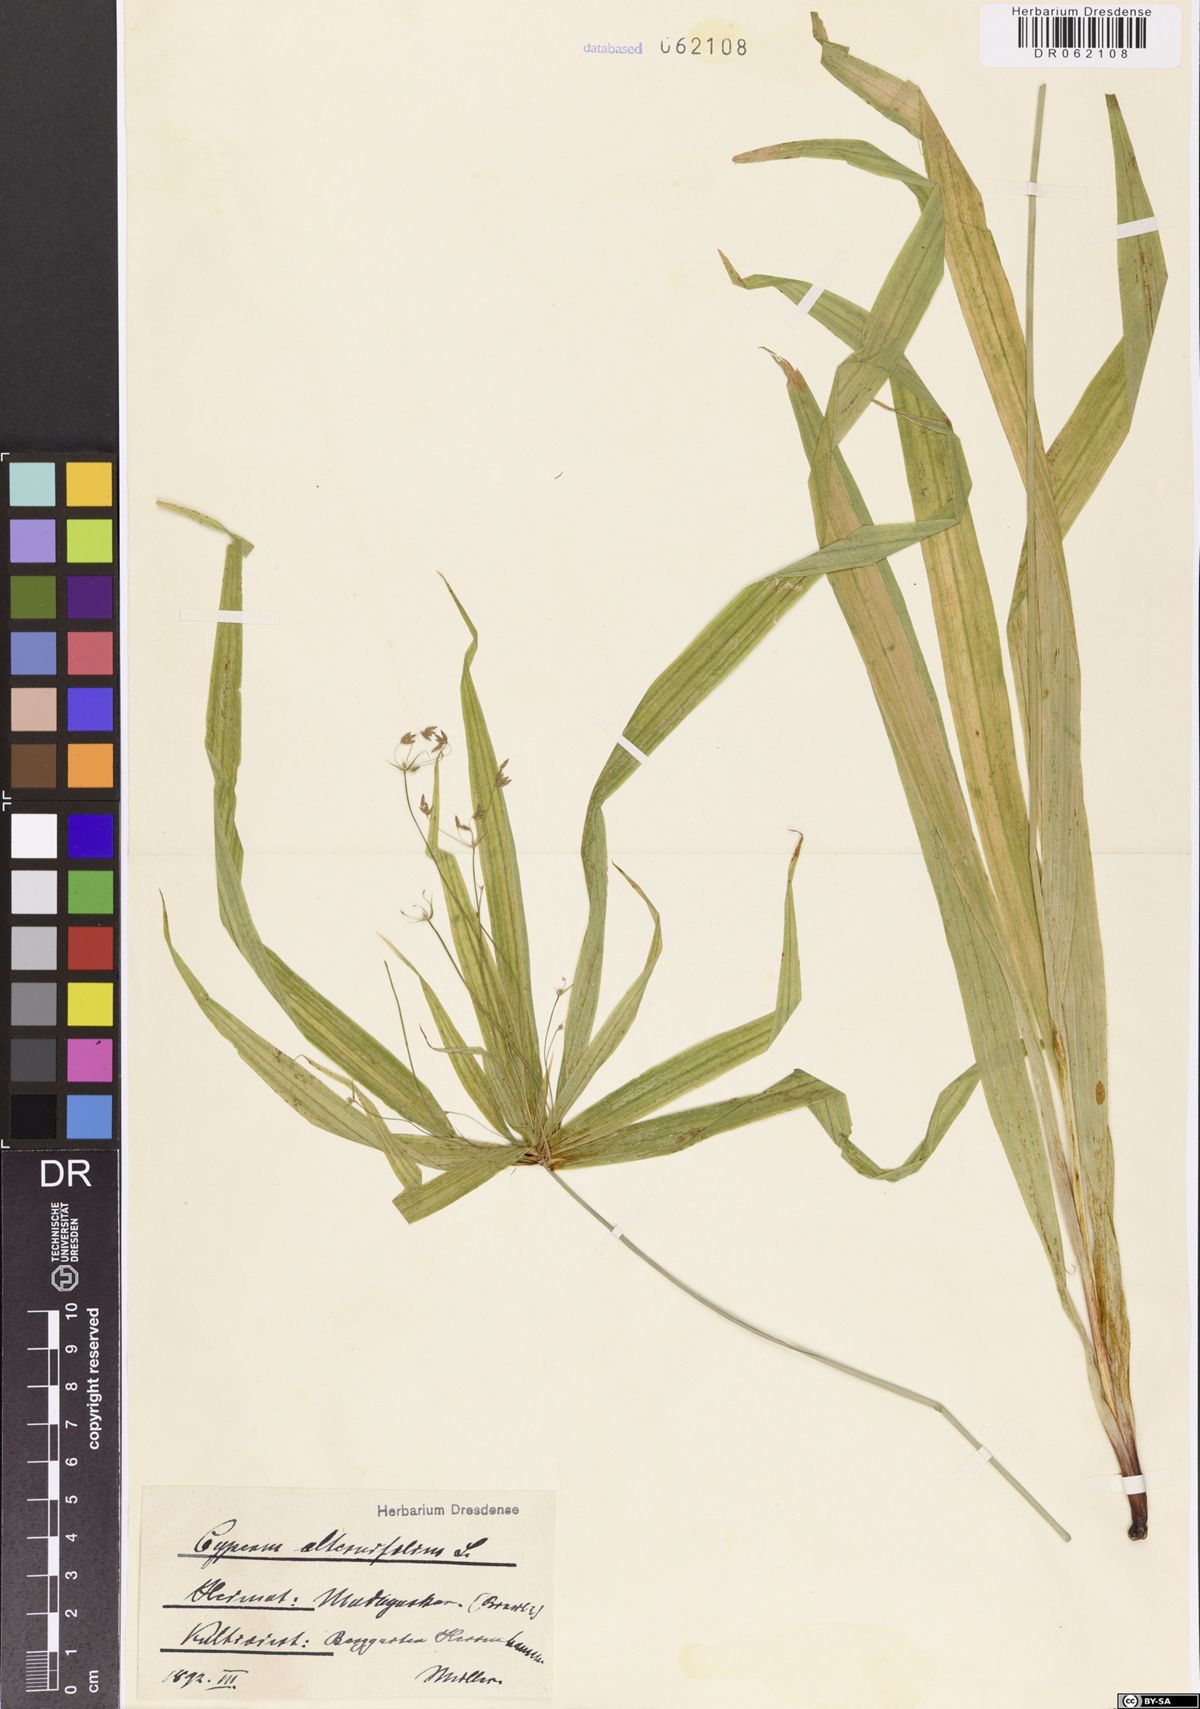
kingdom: Plantae
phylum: Tracheophyta
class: Liliopsida
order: Poales
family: Cyperaceae
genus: Cyperus
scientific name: Cyperus alternifolius
